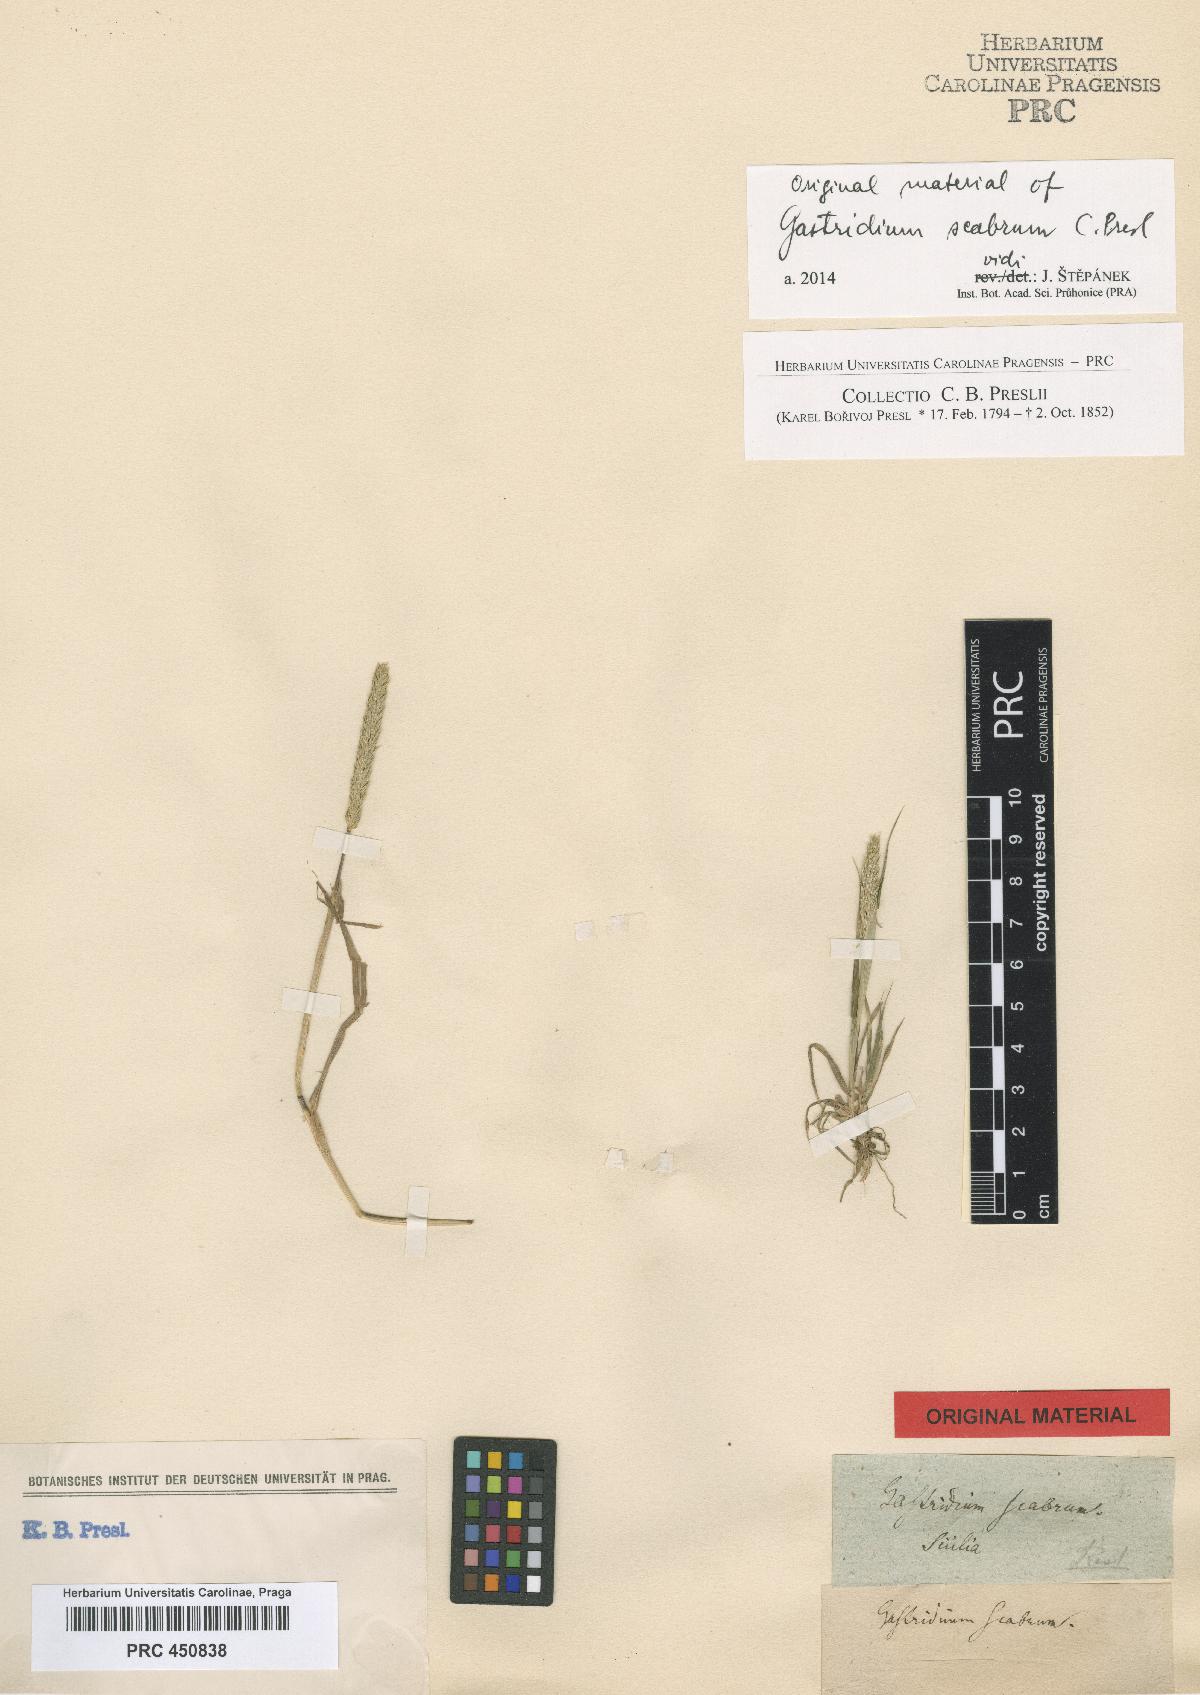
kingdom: Plantae
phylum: Tracheophyta
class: Liliopsida
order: Poales
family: Poaceae
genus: Gastridium
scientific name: Gastridium scabrum
